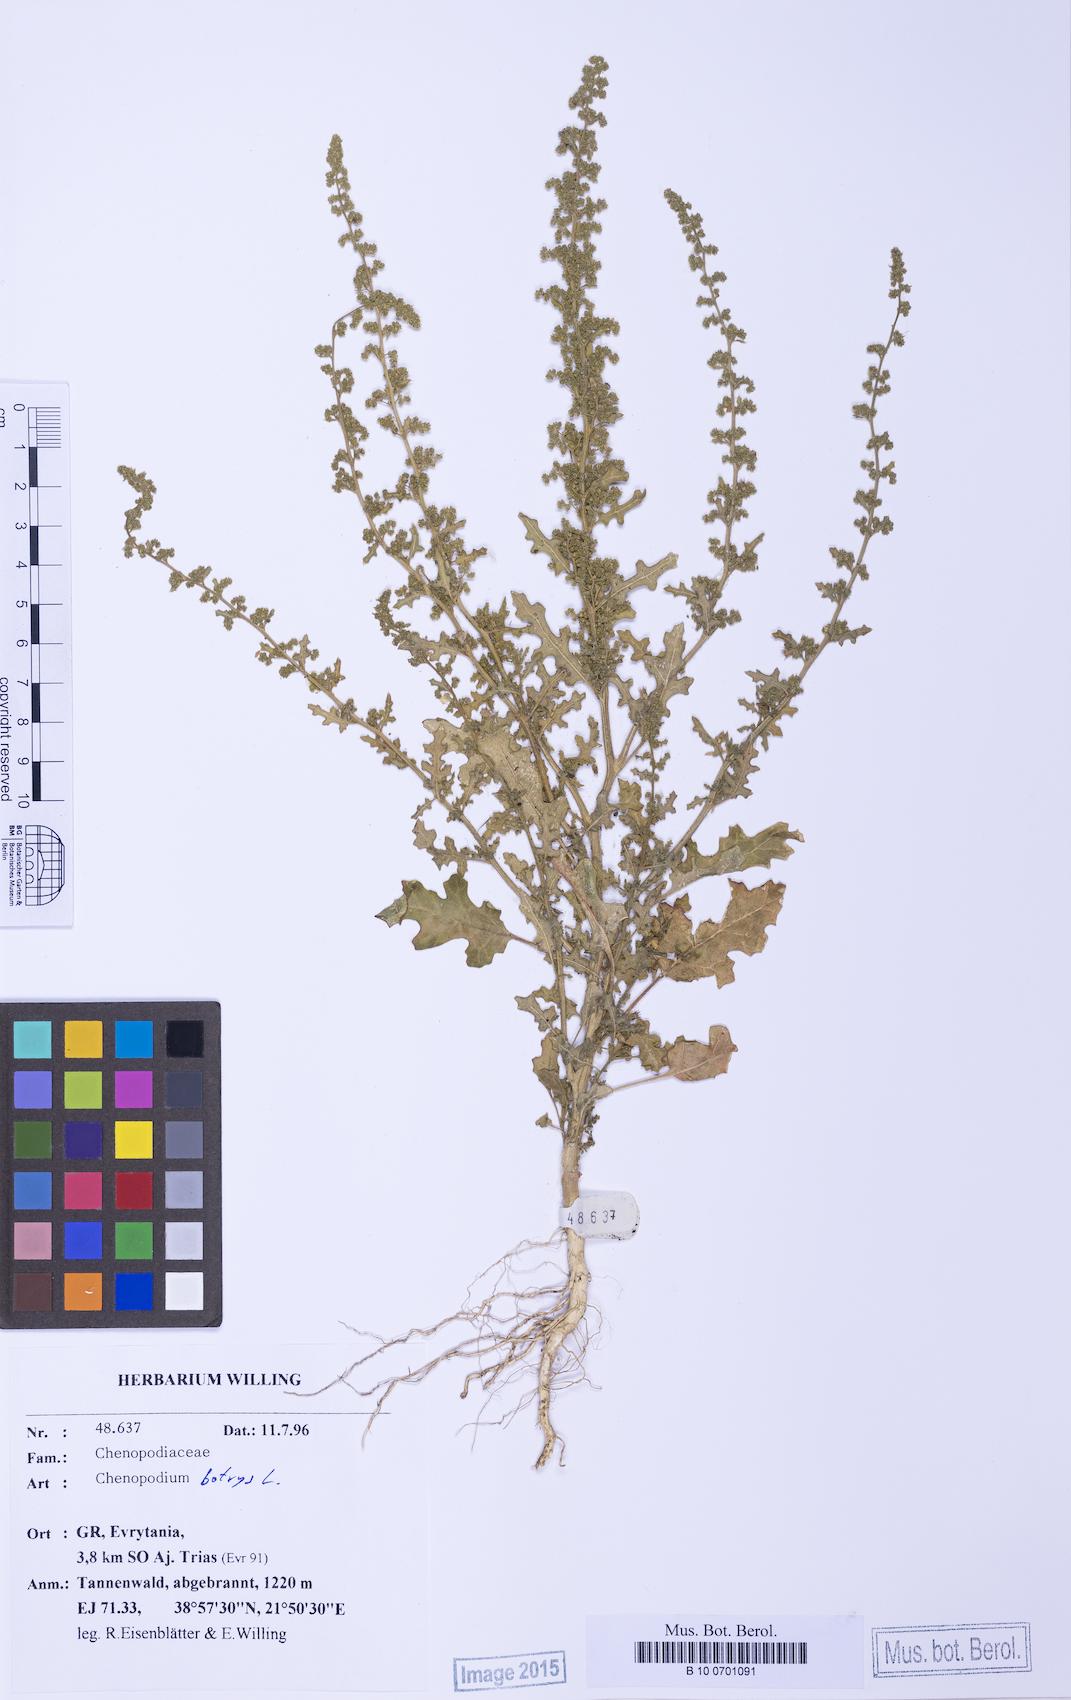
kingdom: Plantae
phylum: Tracheophyta
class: Magnoliopsida
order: Caryophyllales
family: Amaranthaceae
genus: Dysphania
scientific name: Dysphania botrys
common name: Feather-geranium
